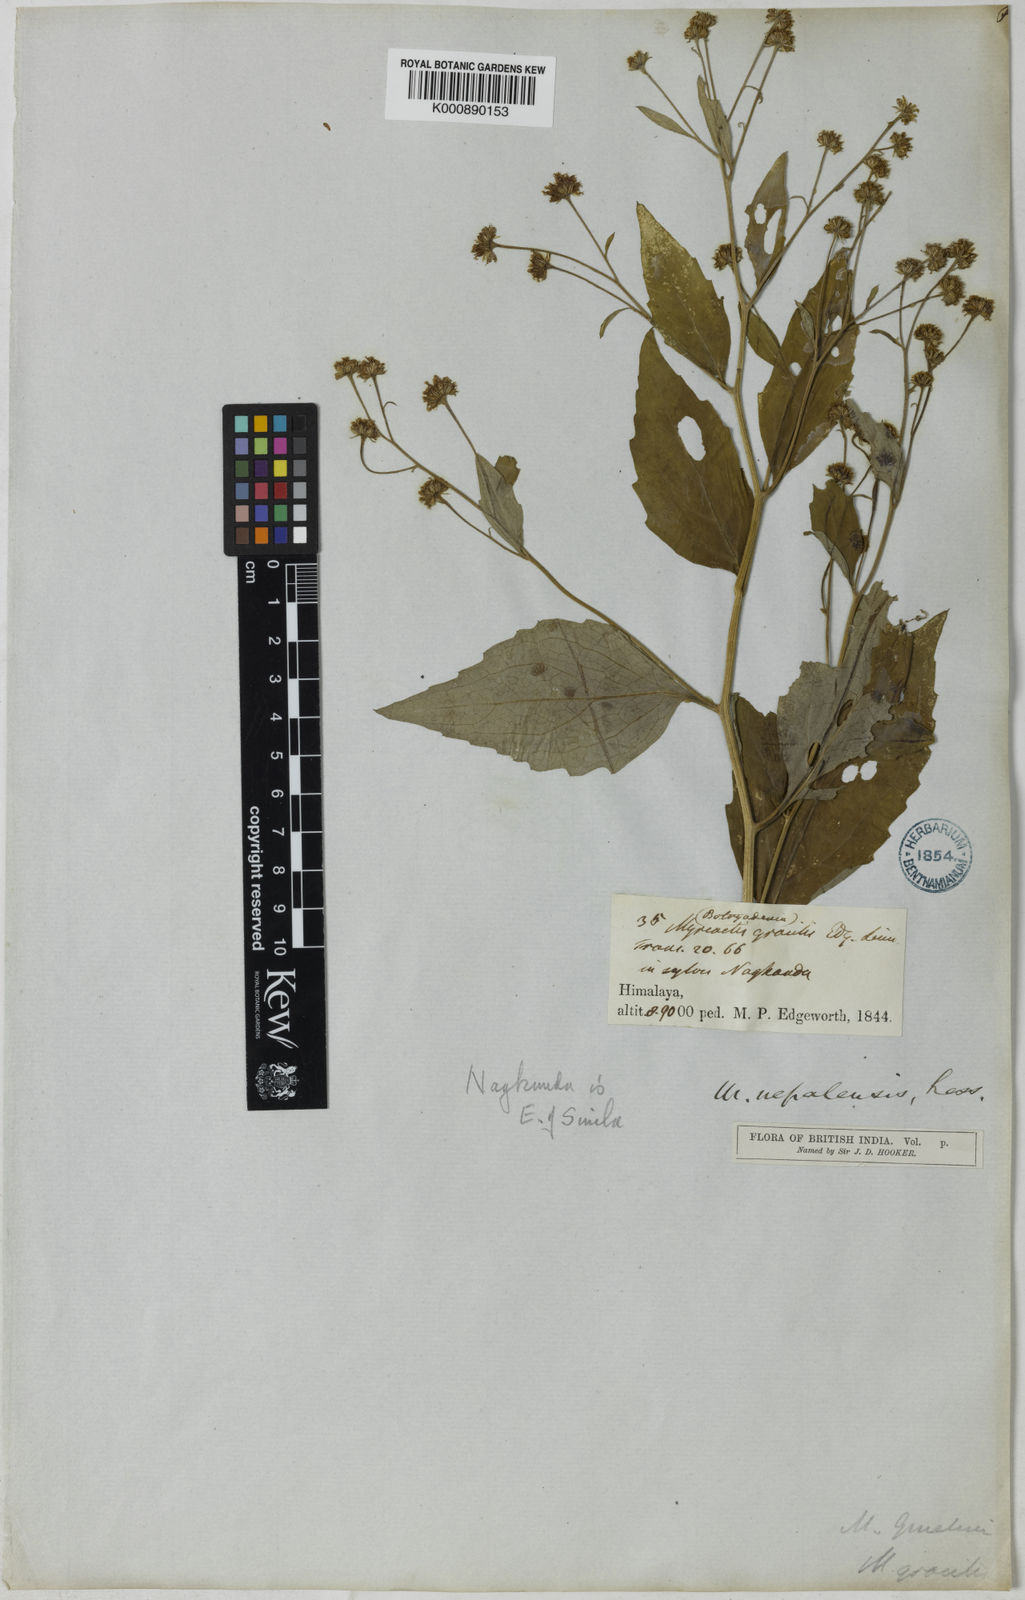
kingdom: Plantae
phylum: Tracheophyta
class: Magnoliopsida
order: Asterales
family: Asteraceae
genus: Myriactis
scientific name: Myriactis nepalensis
